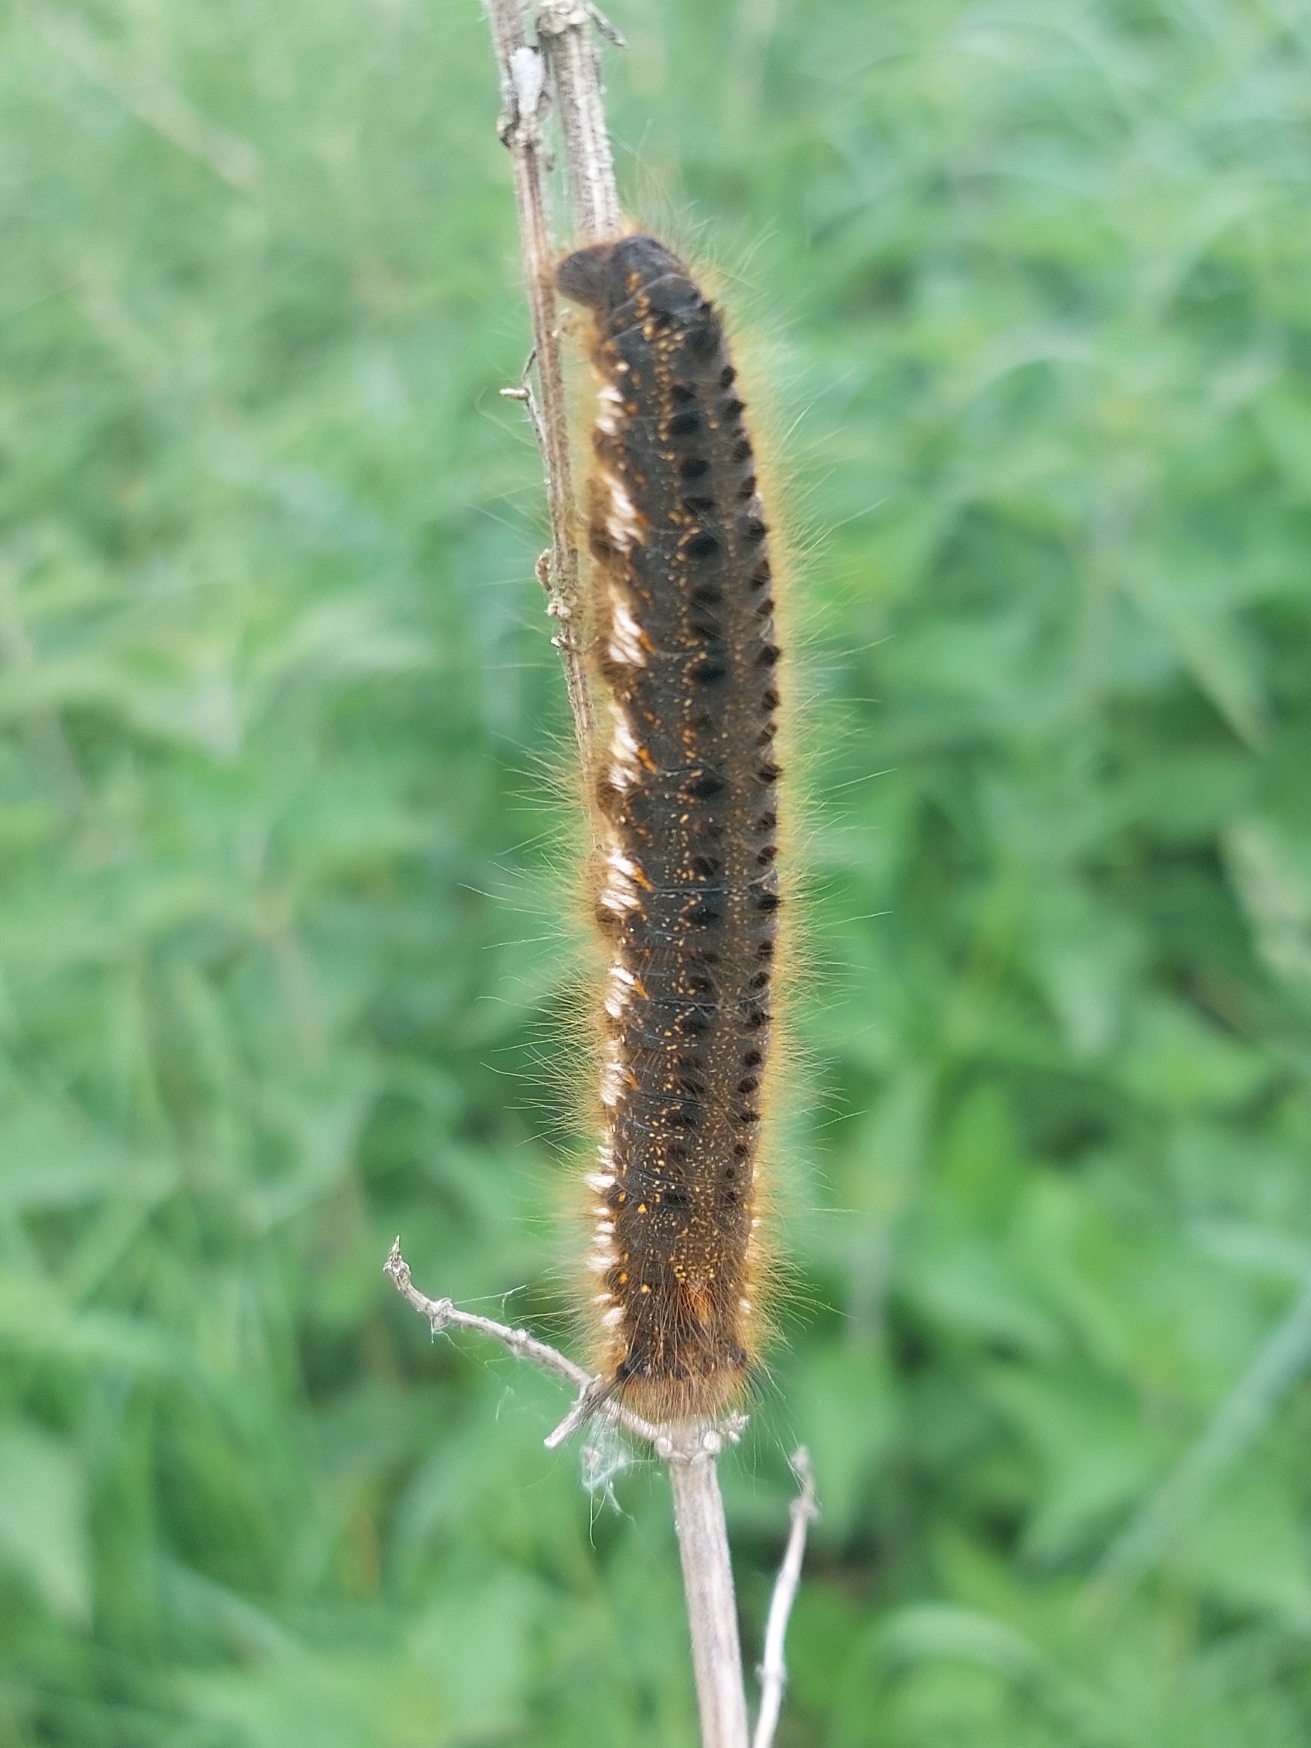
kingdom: Animalia
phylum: Arthropoda
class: Insecta
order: Lepidoptera
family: Lasiocampidae
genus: Euthrix
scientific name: Euthrix potatoria
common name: Græsspinder
